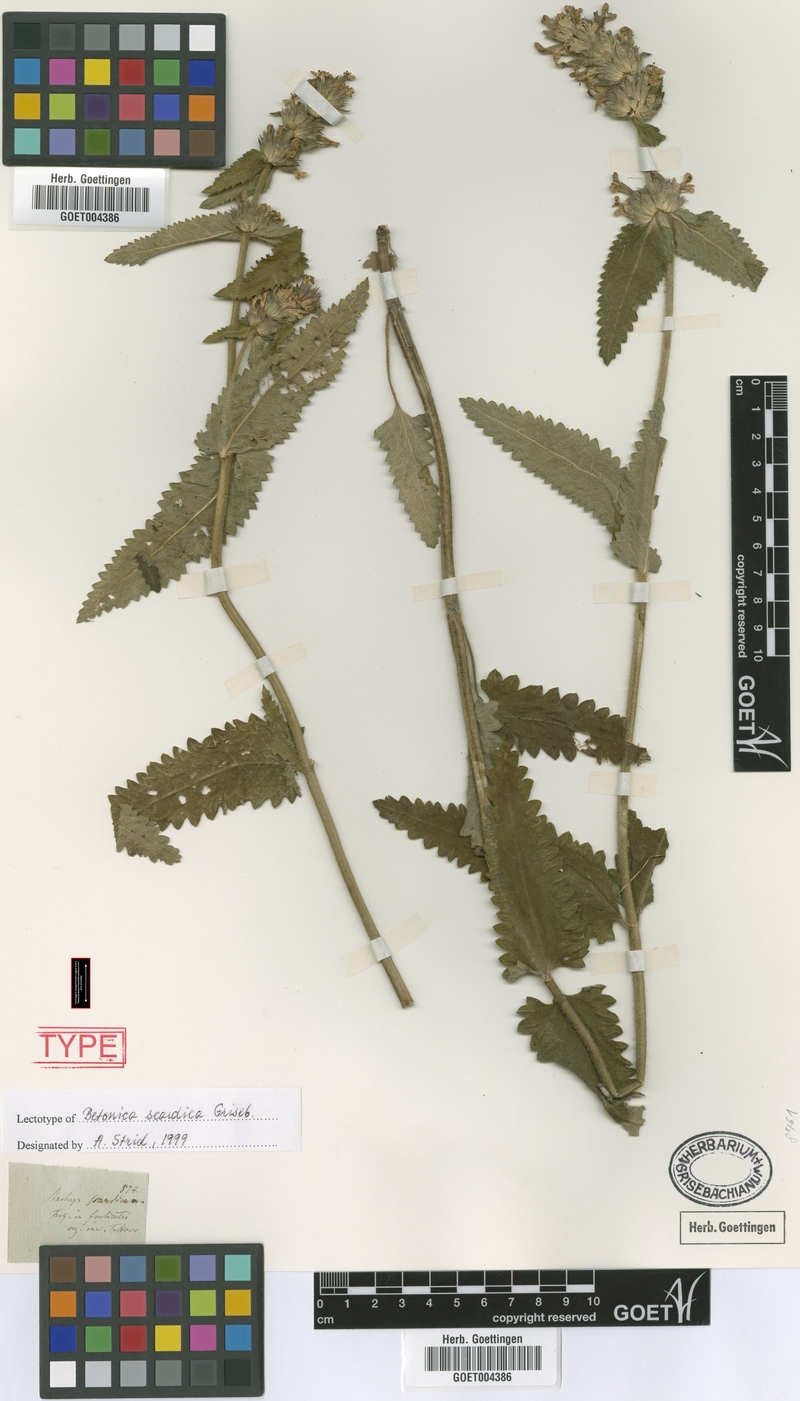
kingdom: Plantae
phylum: Tracheophyta
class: Magnoliopsida
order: Lamiales
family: Lamiaceae
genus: Betonica
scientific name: Betonica scardica
